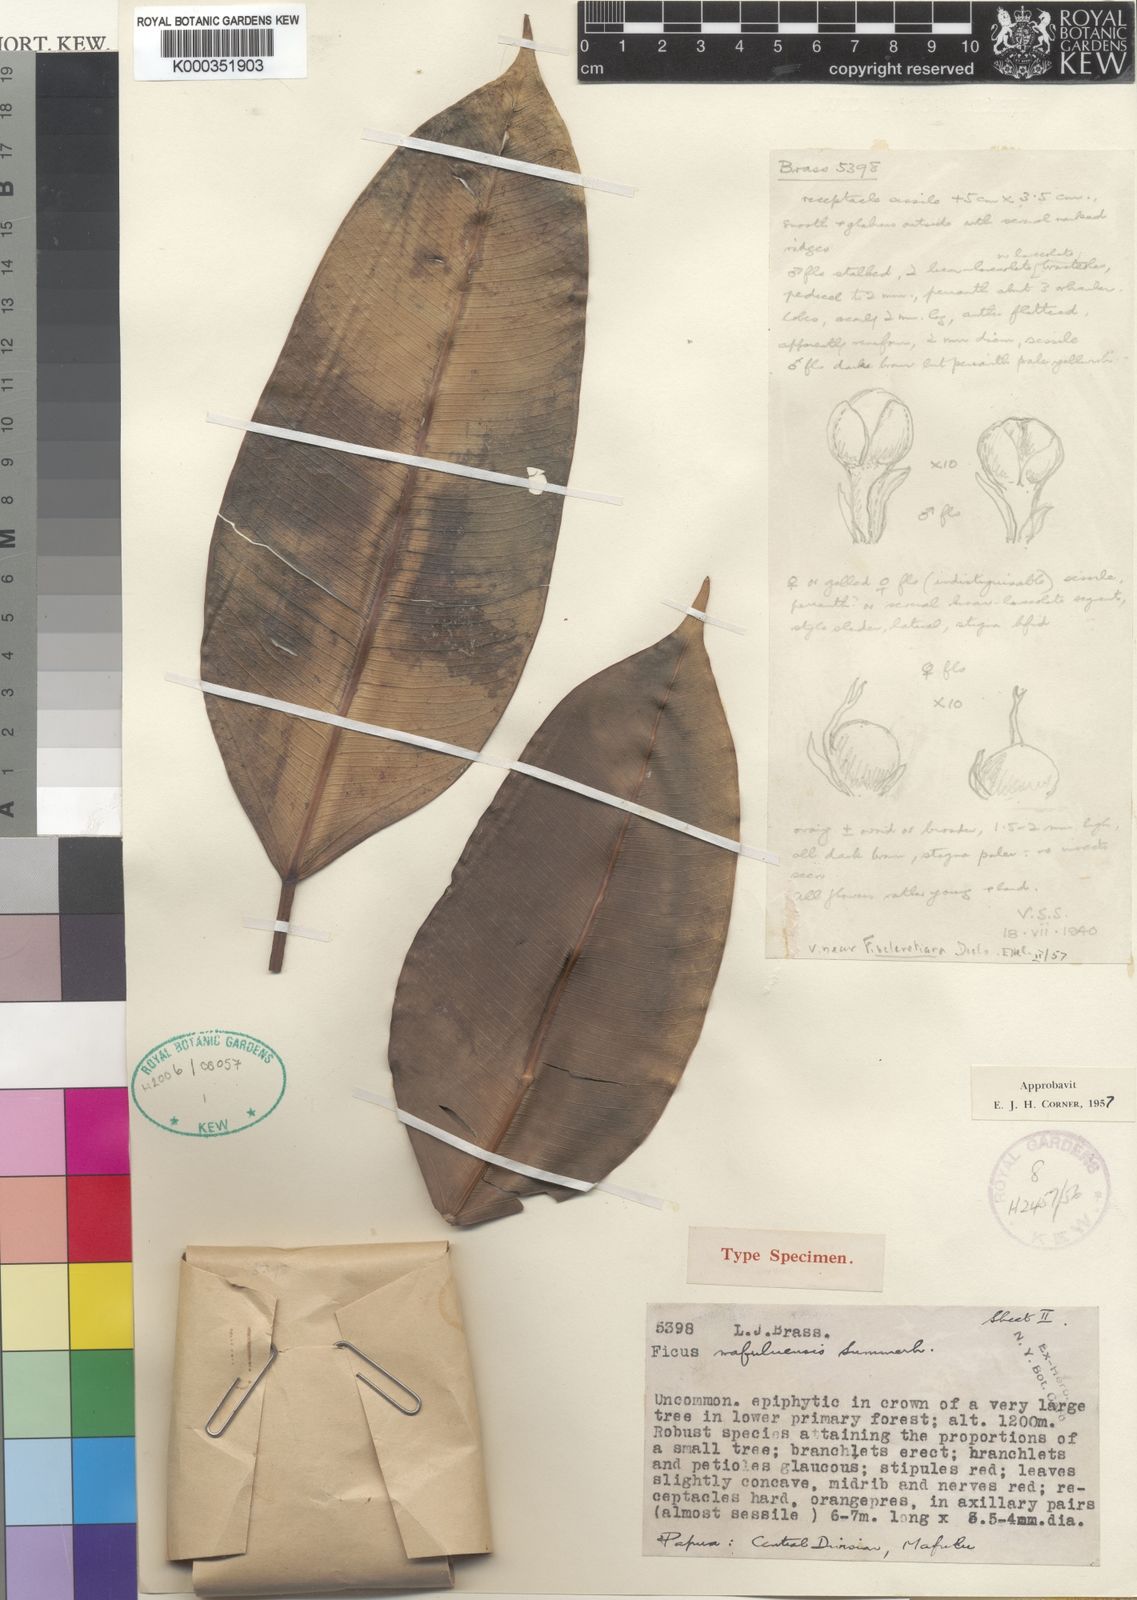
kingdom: Plantae
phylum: Tracheophyta
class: Magnoliopsida
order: Rosales
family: Moraceae
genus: Ficus
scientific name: Ficus hesperidiiformis
